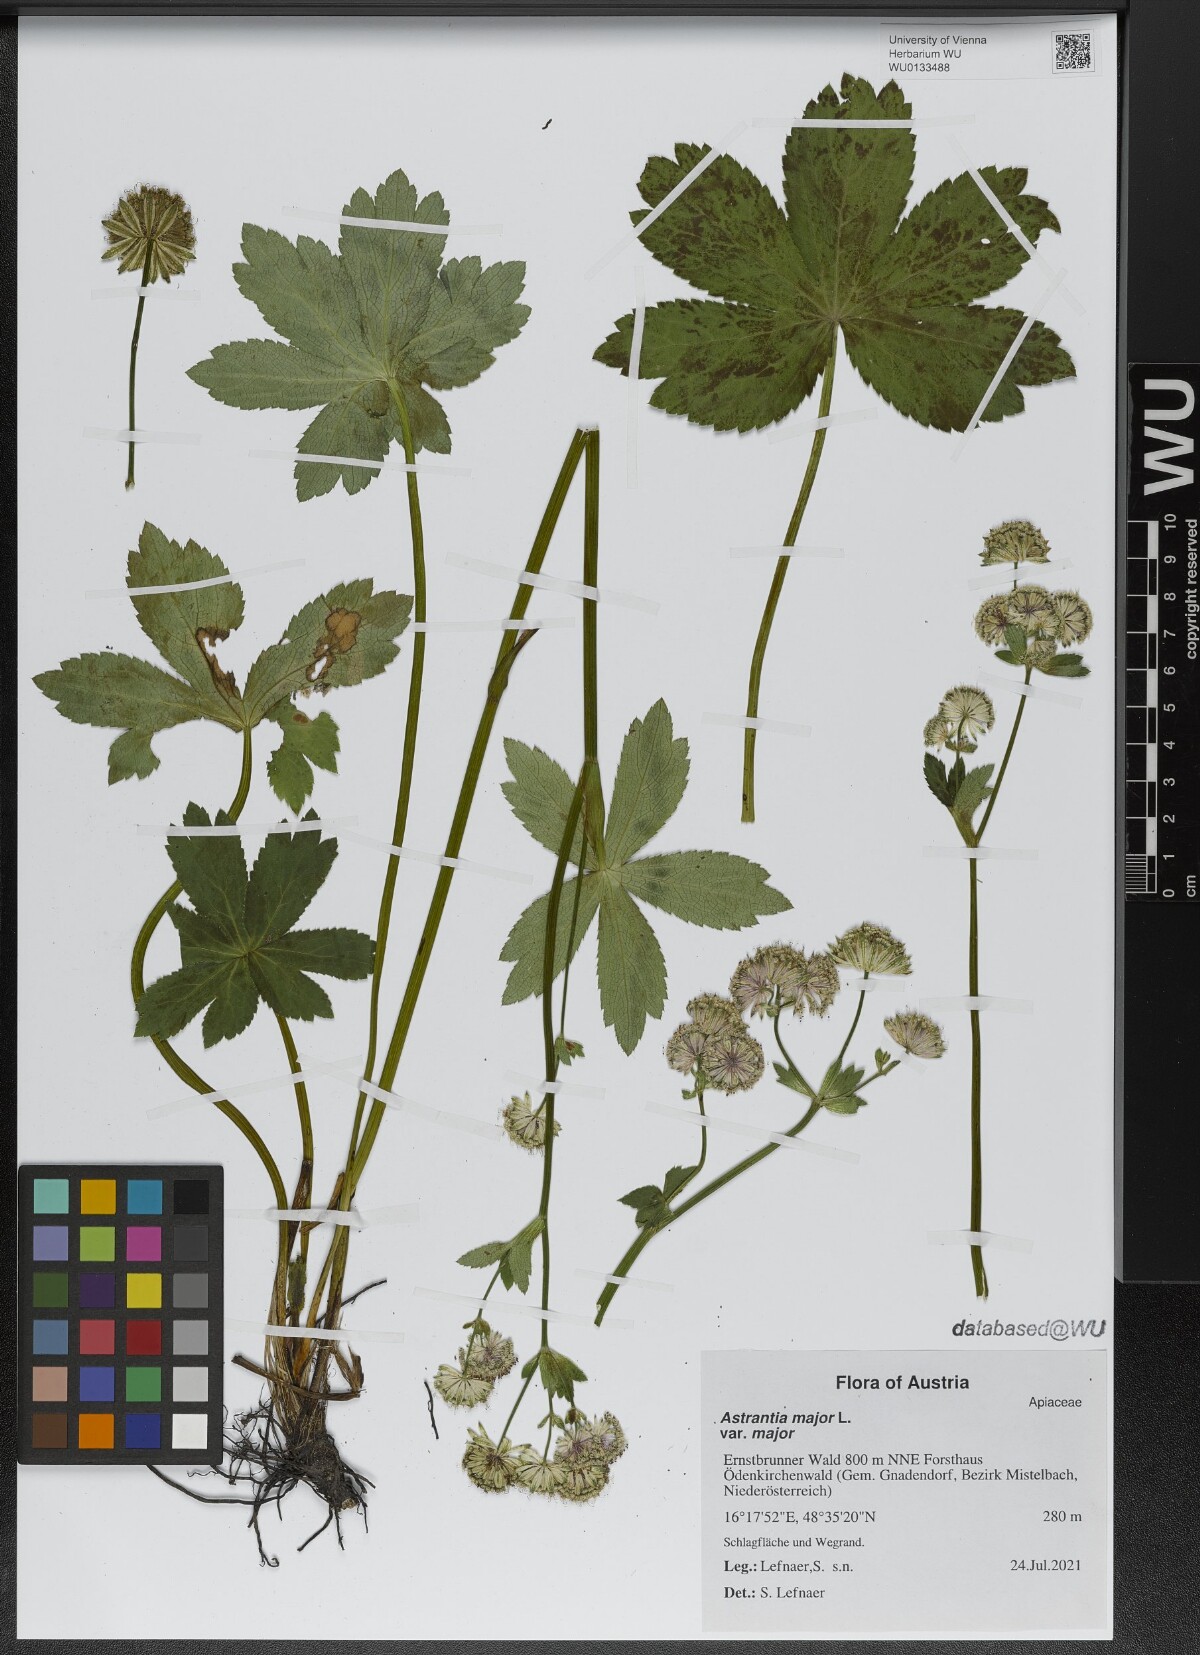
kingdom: Plantae
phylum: Tracheophyta
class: Magnoliopsida
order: Apiales
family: Apiaceae
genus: Astrantia
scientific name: Astrantia major
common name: Greater masterwort
